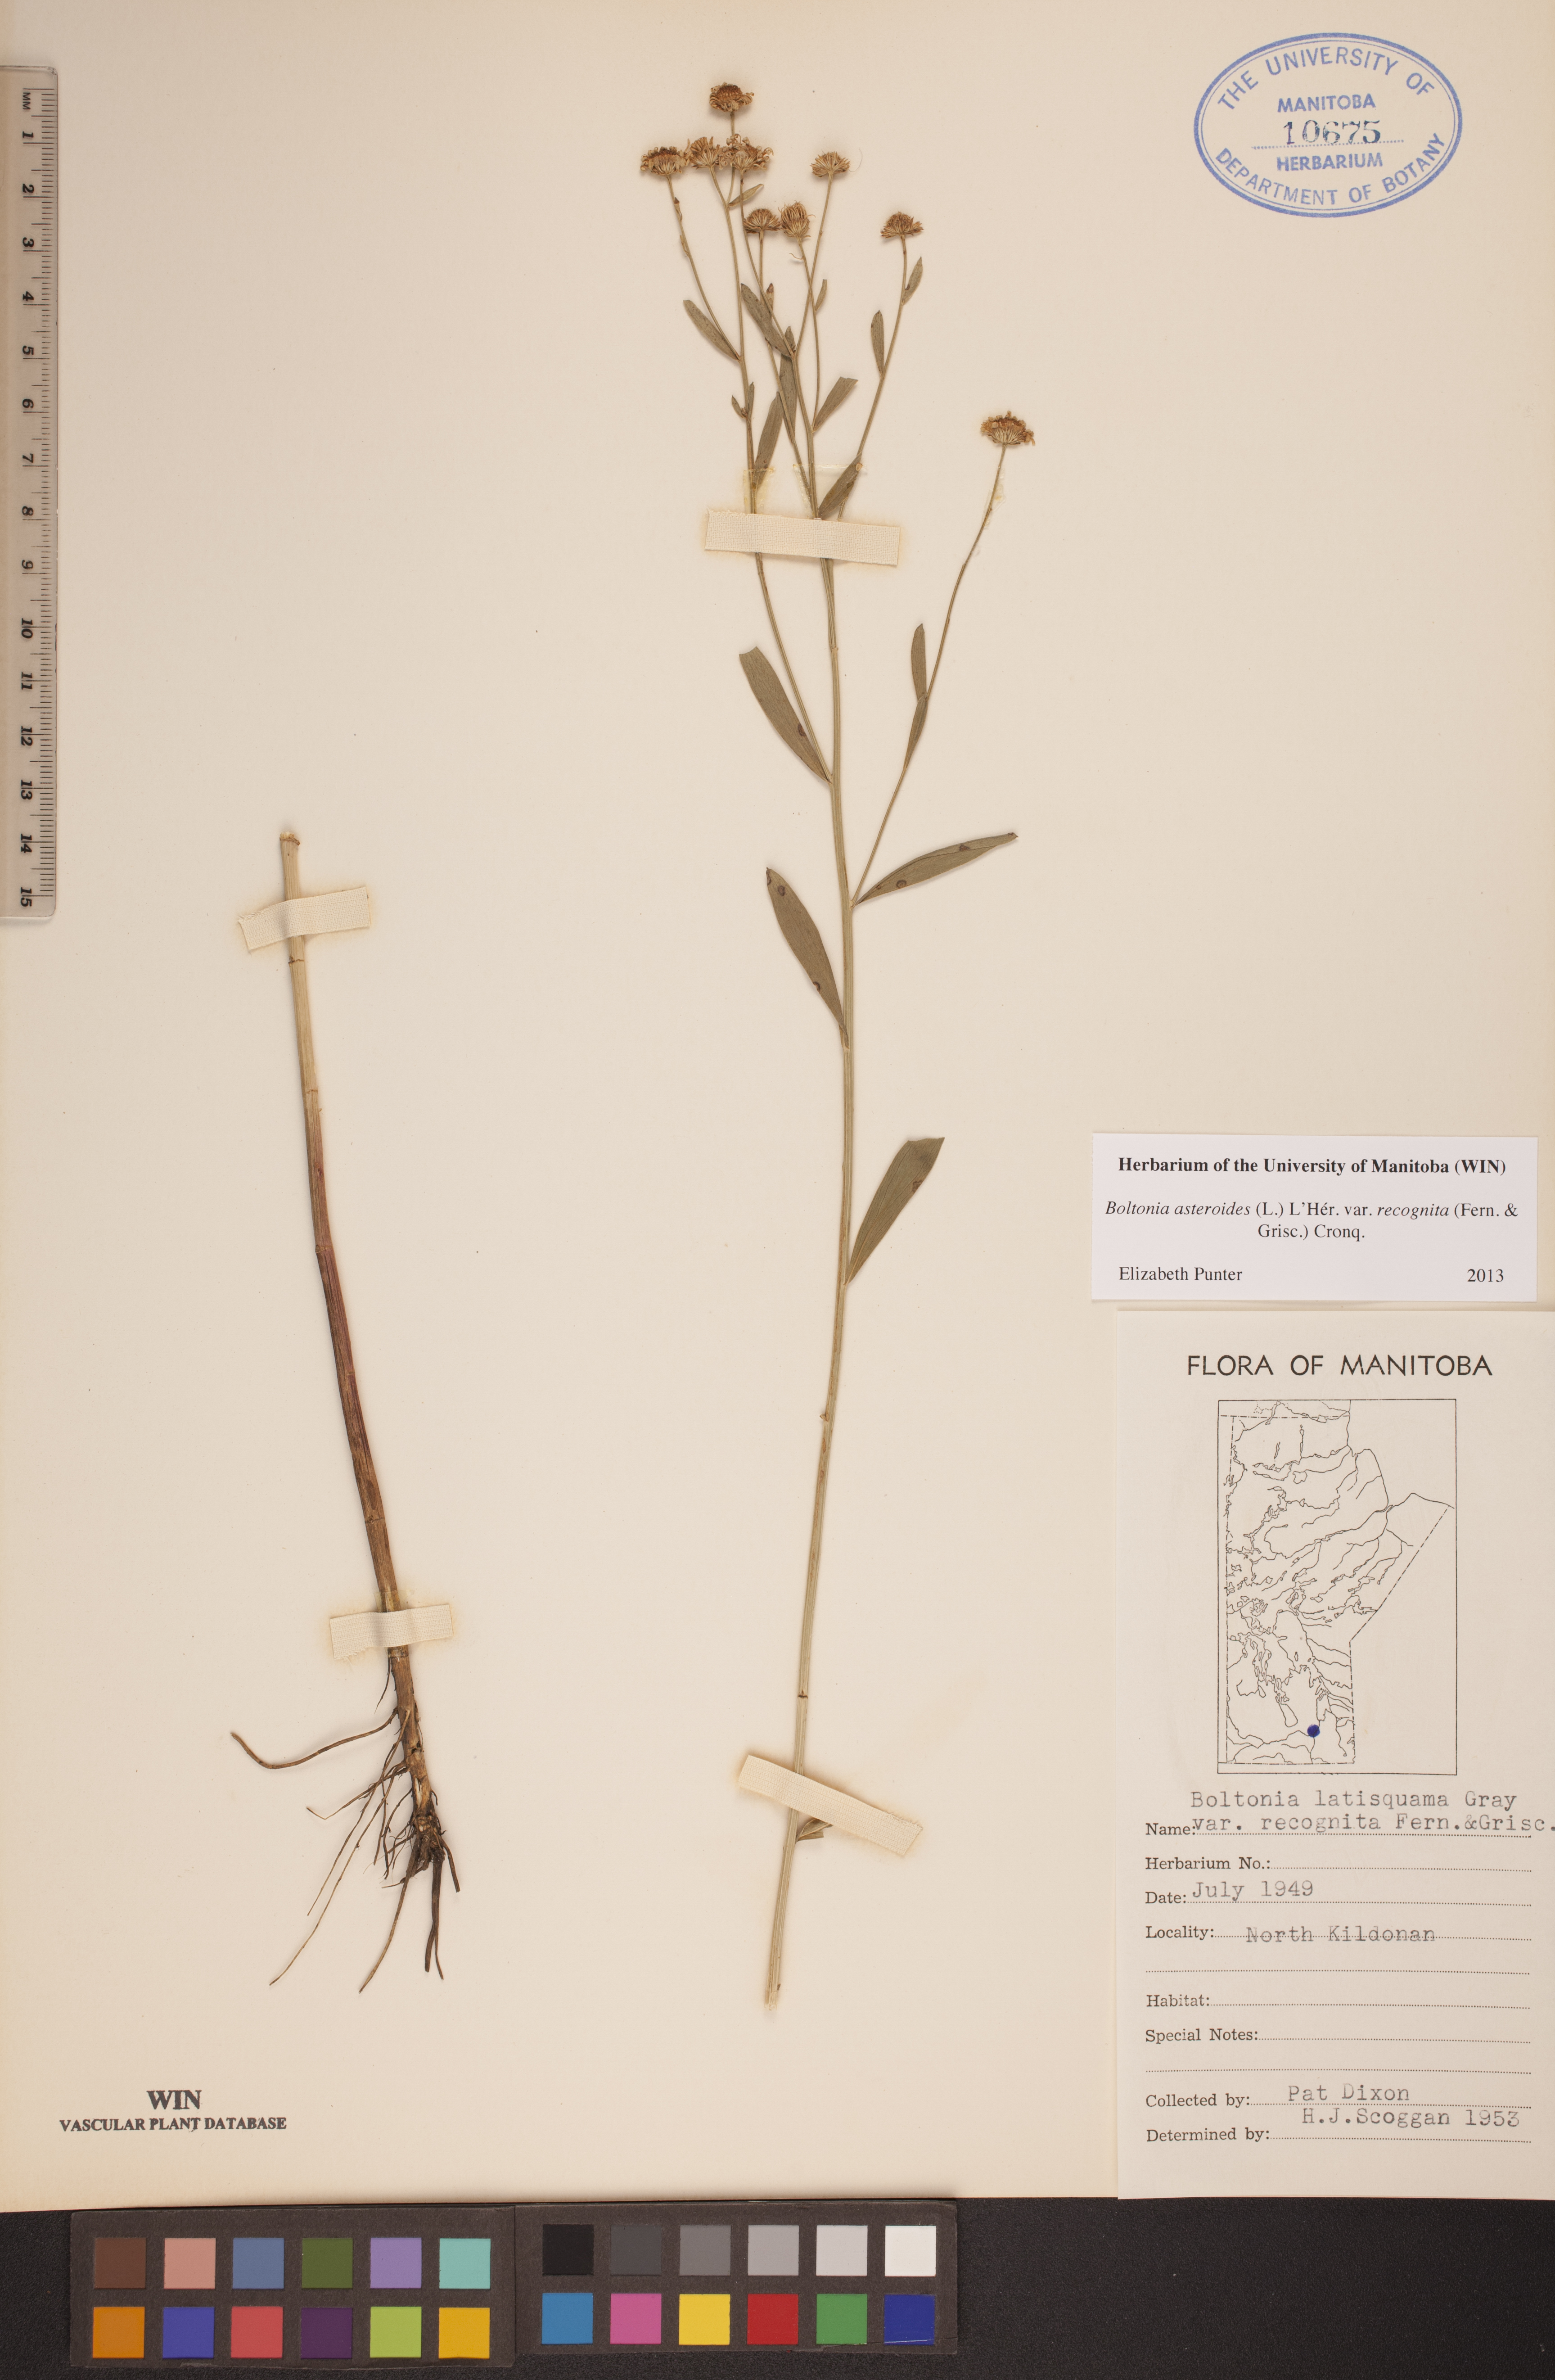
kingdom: Plantae
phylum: Tracheophyta
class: Magnoliopsida
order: Asterales
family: Asteraceae
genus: Boltonia
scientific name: Boltonia asteroides
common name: False chamomile
